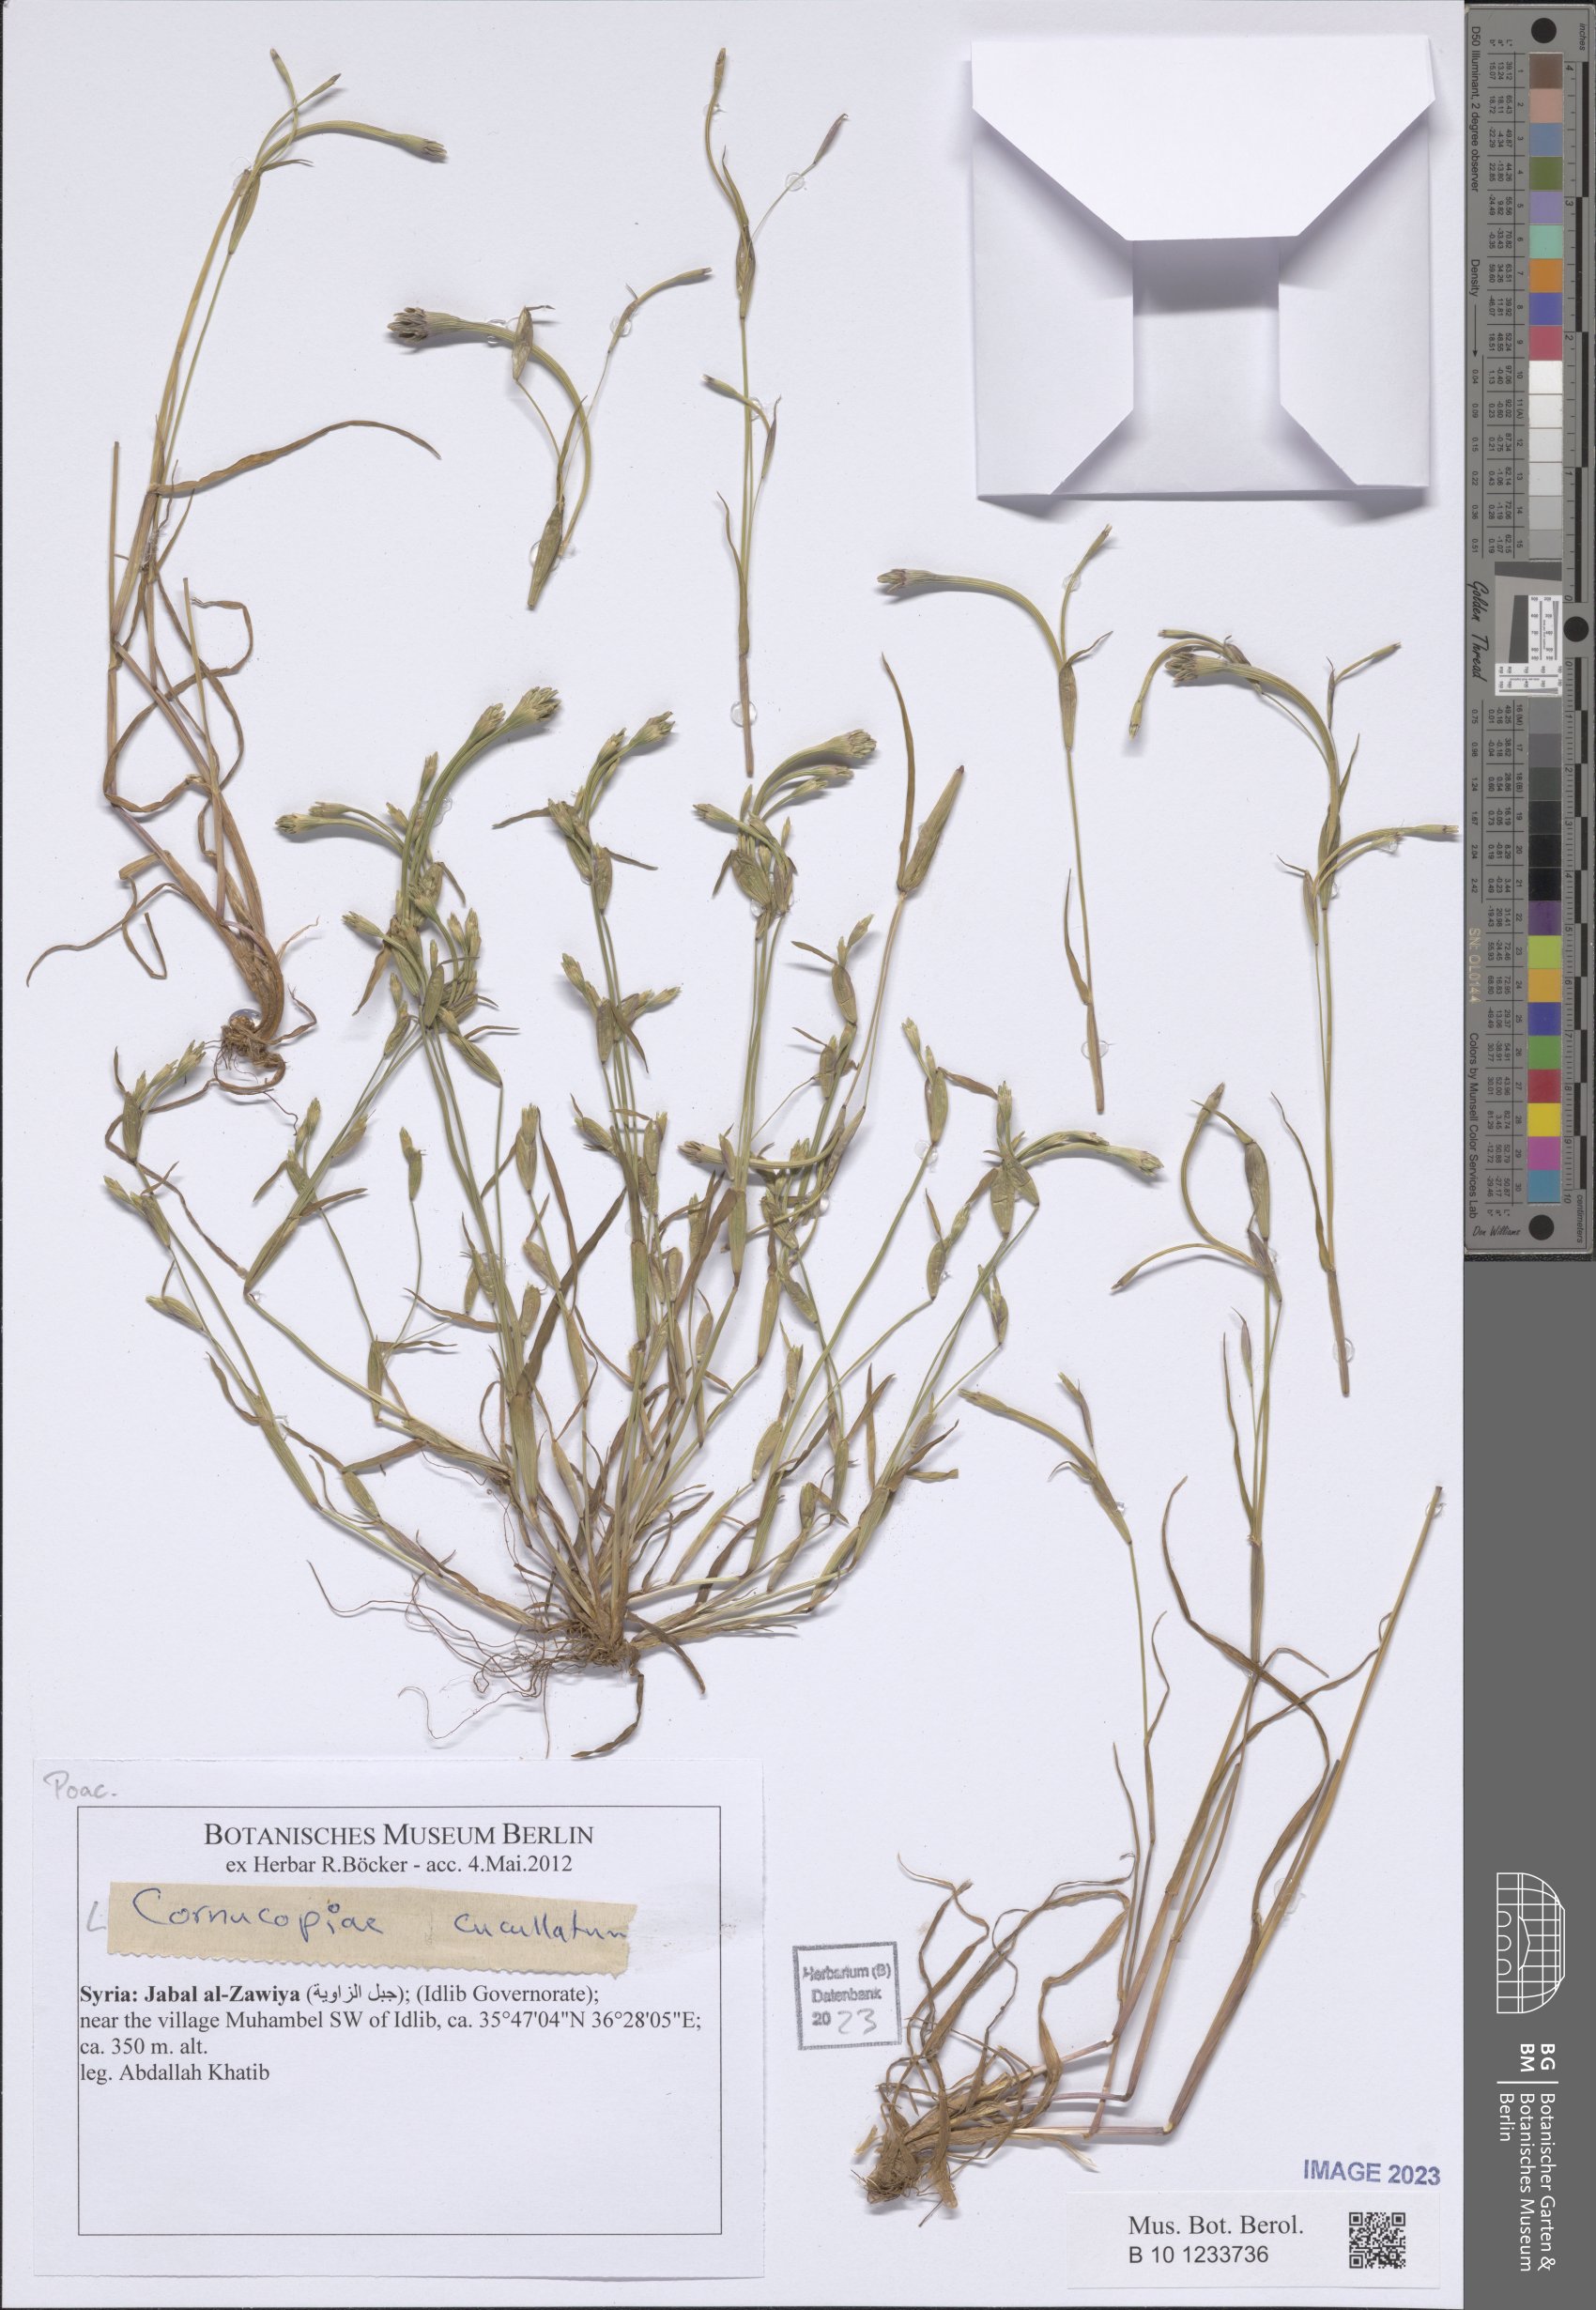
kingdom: Plantae
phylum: Tracheophyta
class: Liliopsida
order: Poales
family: Poaceae
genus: Cornucopiae
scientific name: Cornucopiae cucullatum
